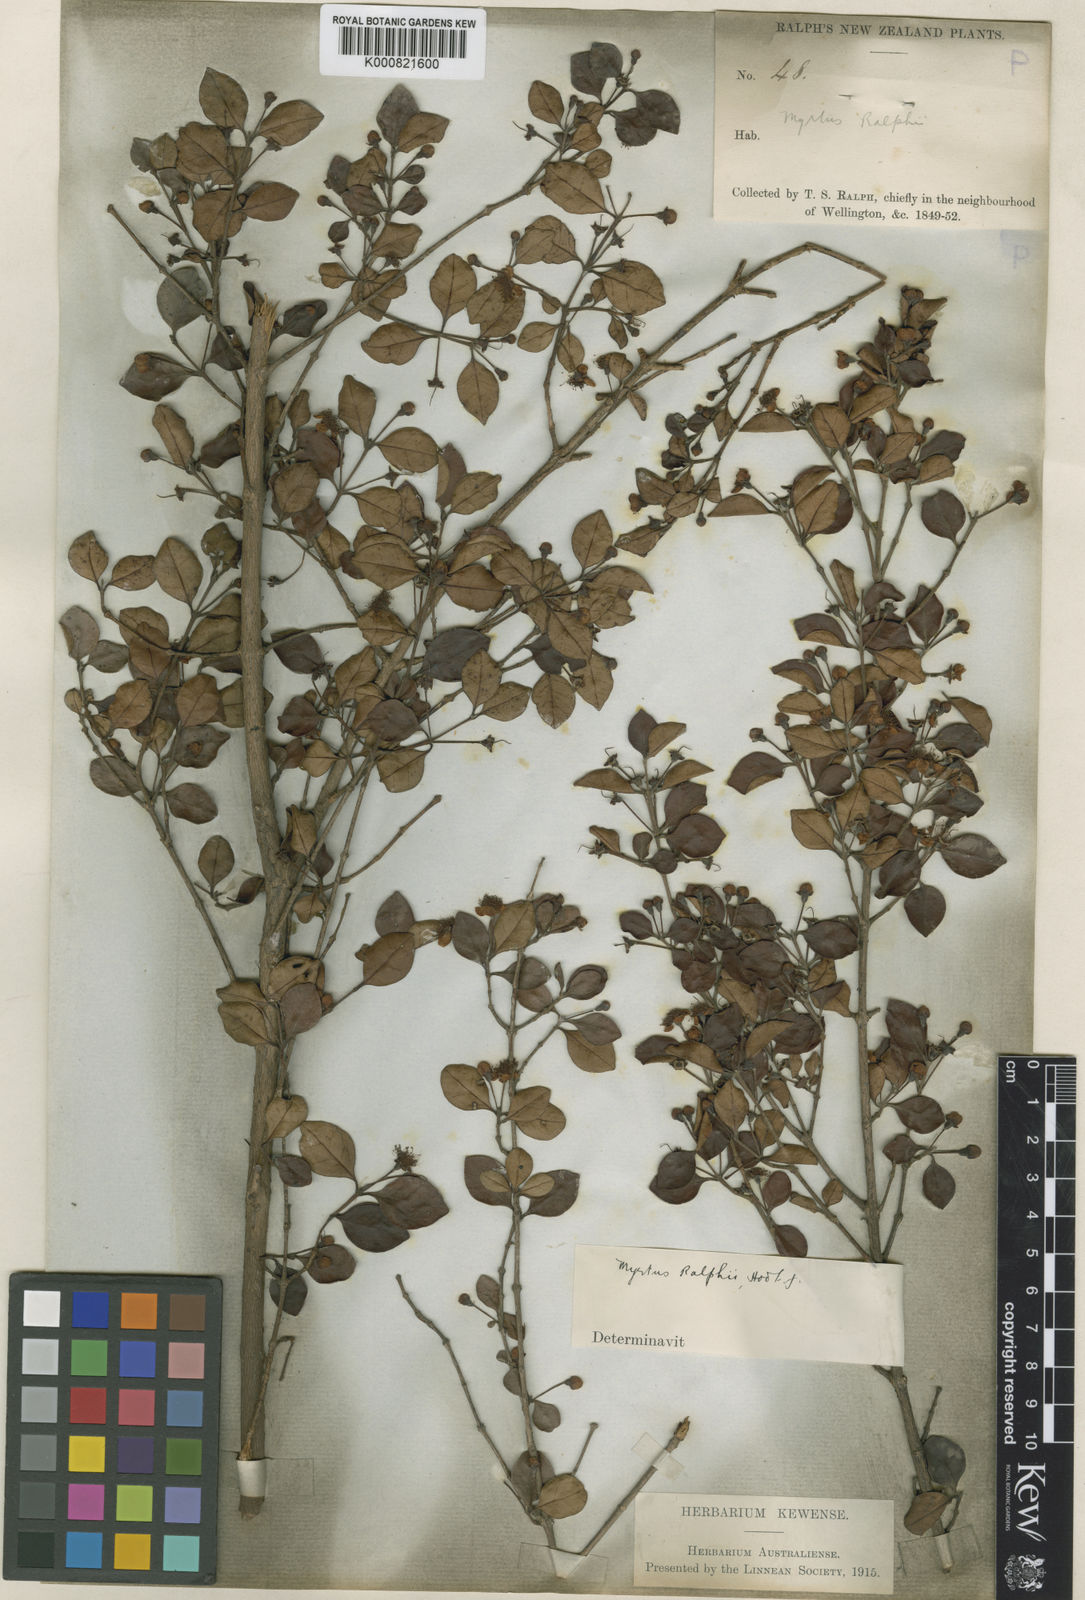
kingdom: Plantae
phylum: Tracheophyta
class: Magnoliopsida
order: Myrtales
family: Myrtaceae
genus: Lophomyrtus
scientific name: Lophomyrtus ralphii
